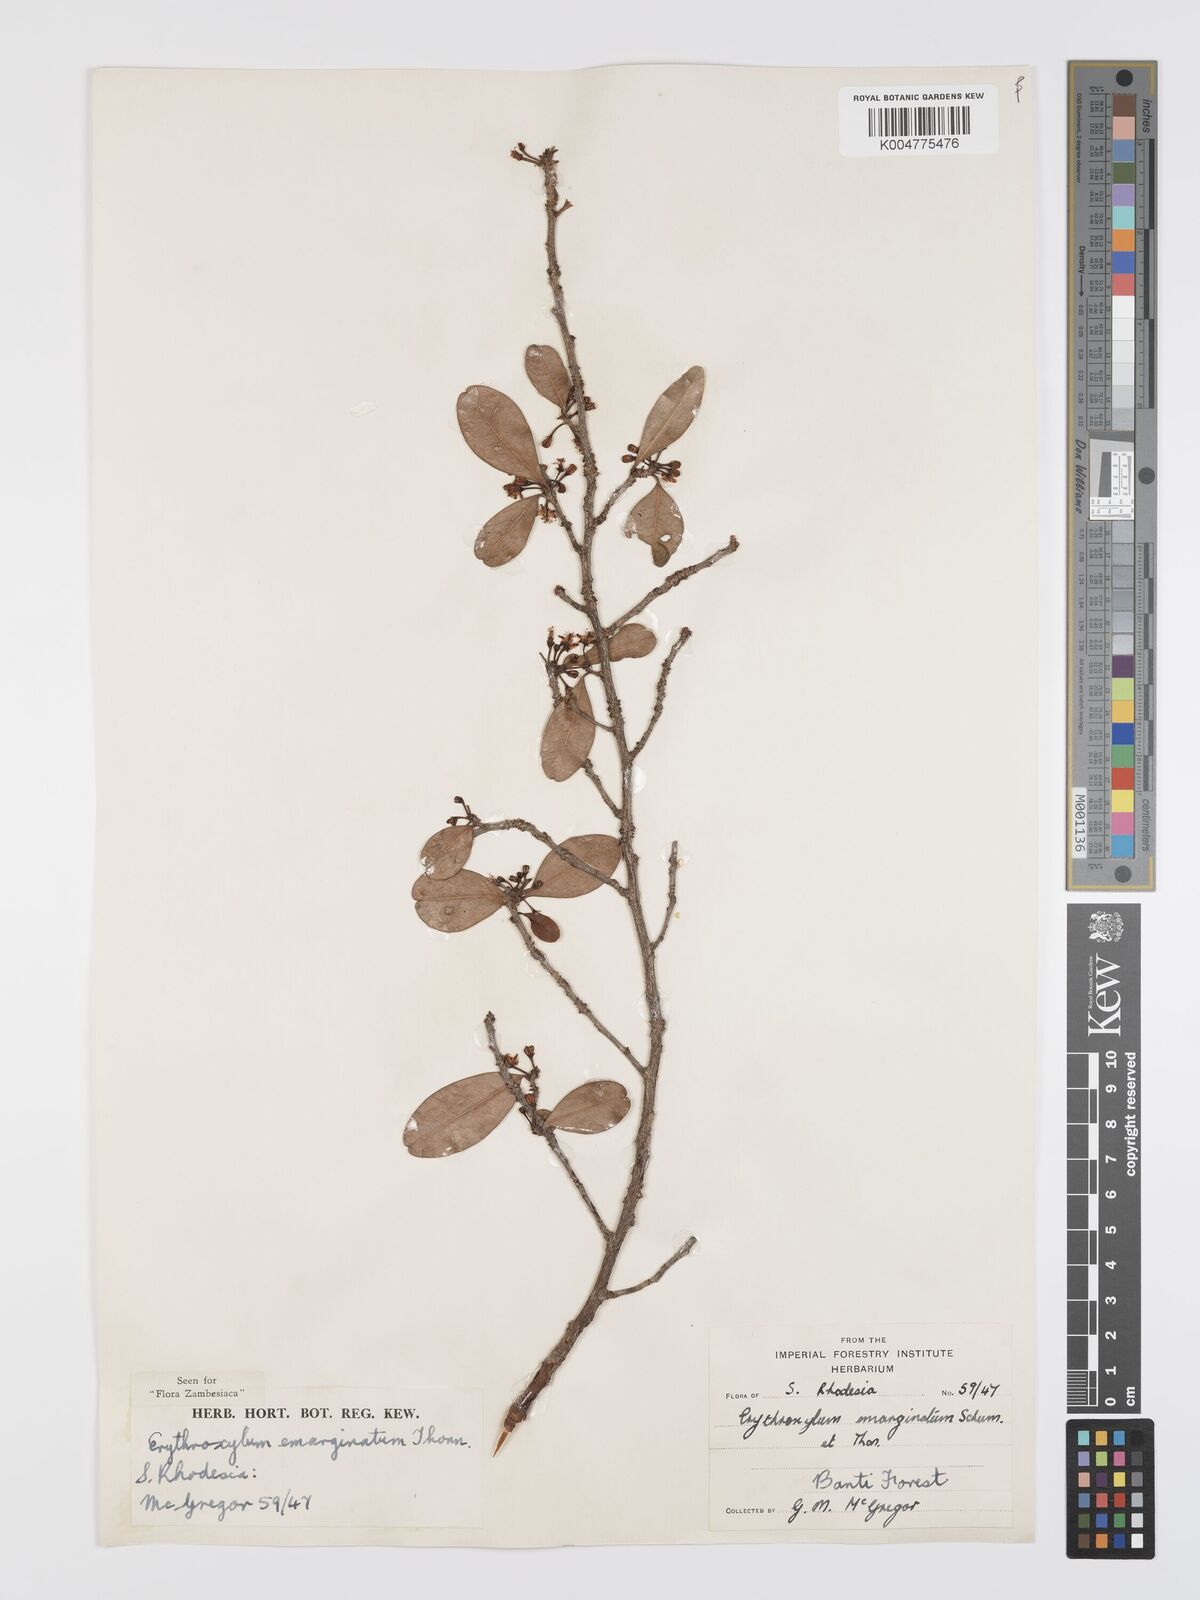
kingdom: Plantae
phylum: Tracheophyta
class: Magnoliopsida
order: Malpighiales
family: Erythroxylaceae
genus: Erythroxylum
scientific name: Erythroxylum emarginatum
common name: African coca-tree
